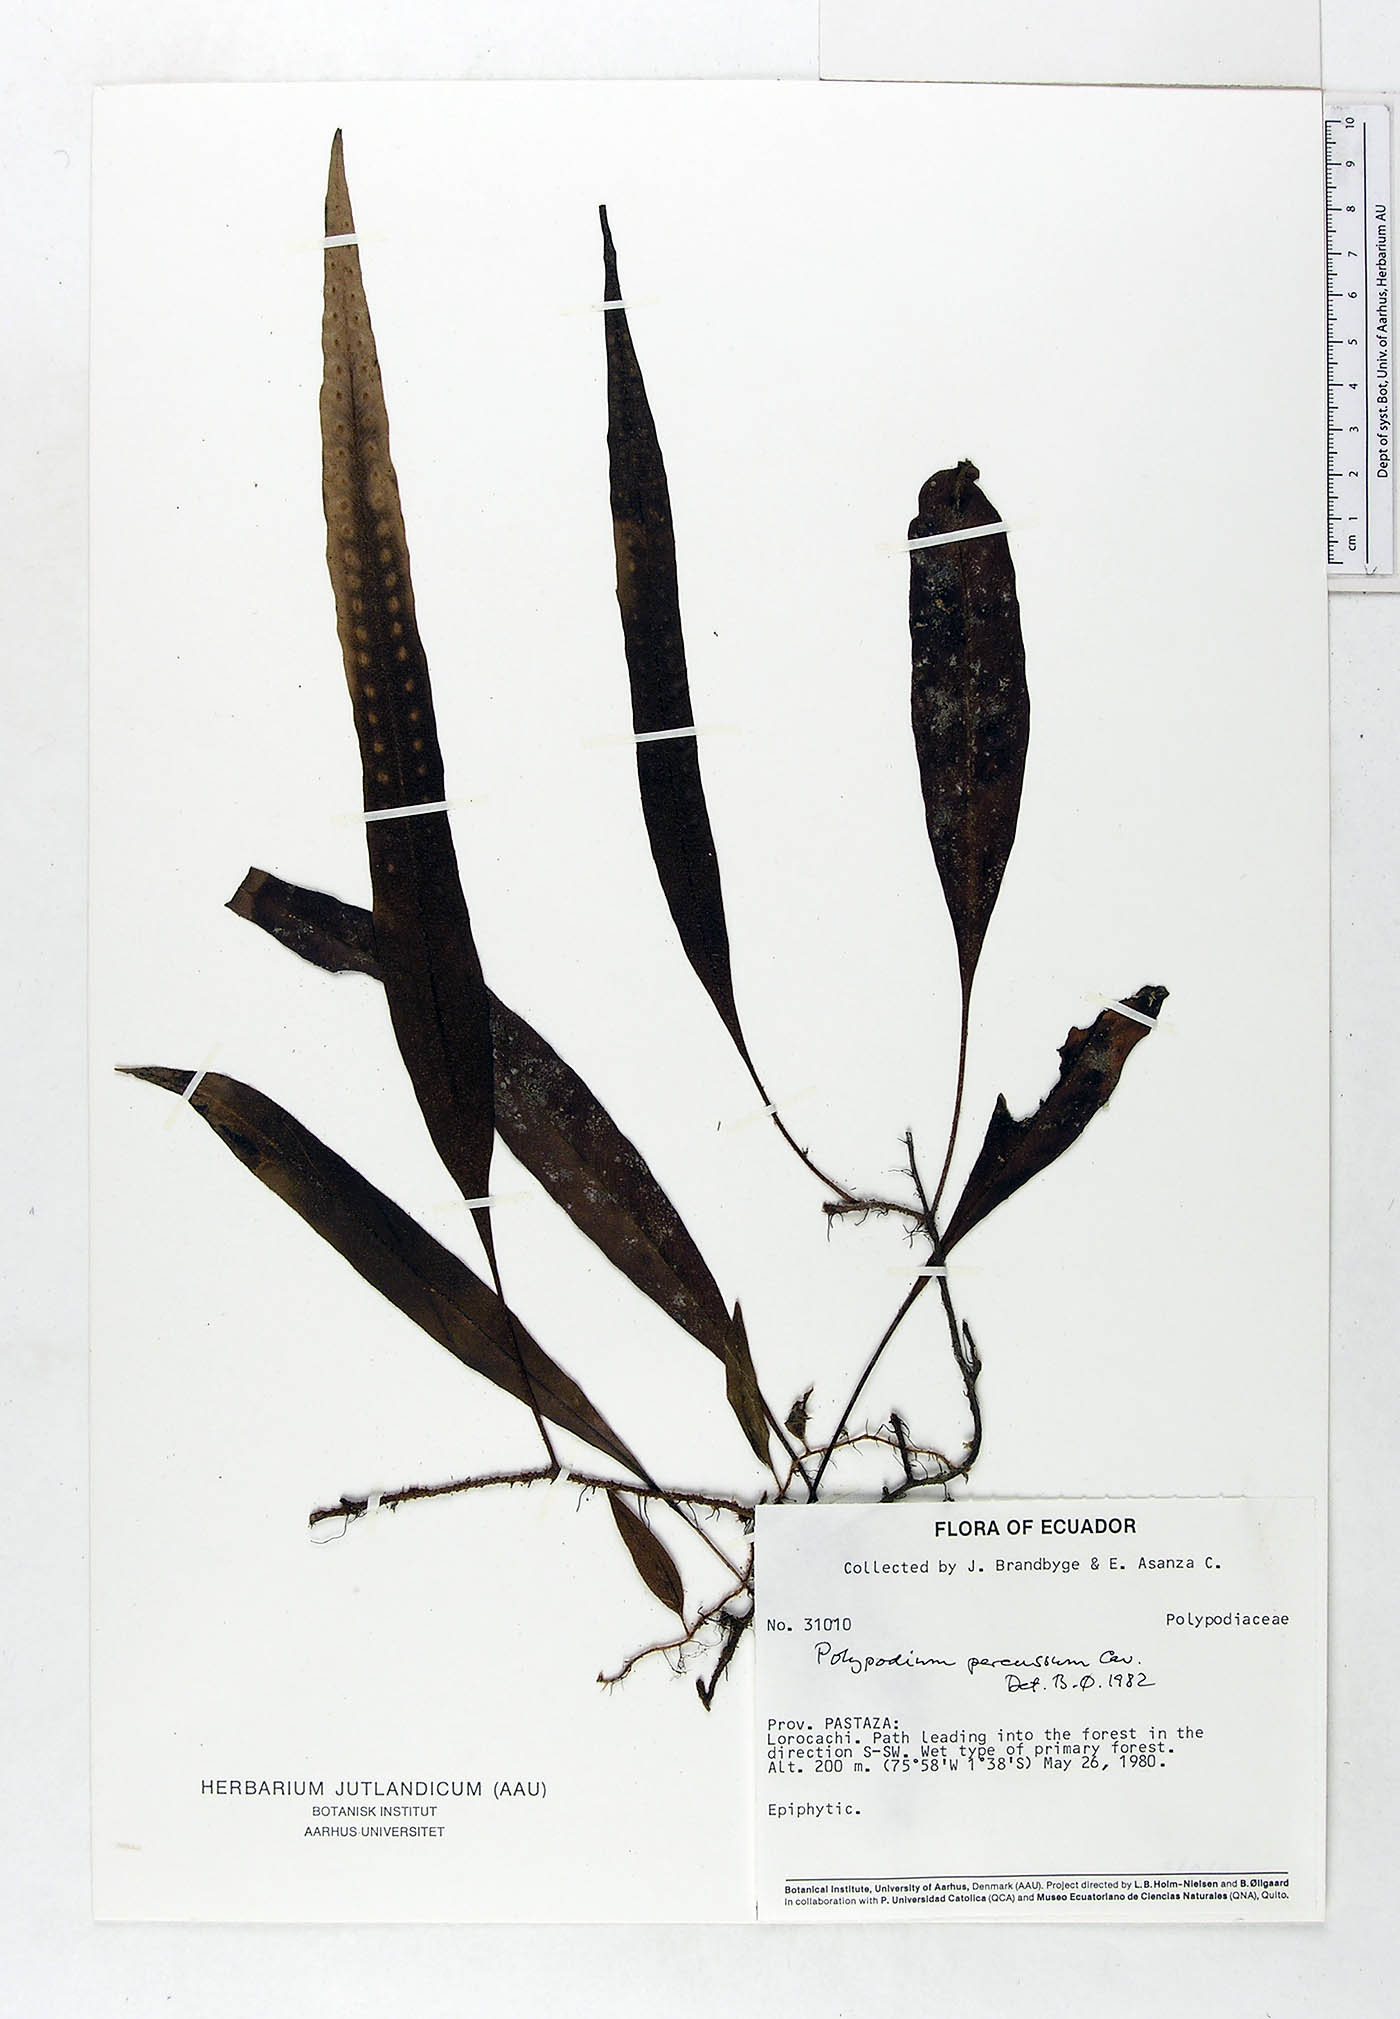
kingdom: Plantae
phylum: Tracheophyta
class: Polypodiopsida
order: Polypodiales
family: Polypodiaceae
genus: Microgramma
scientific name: Microgramma percussa
